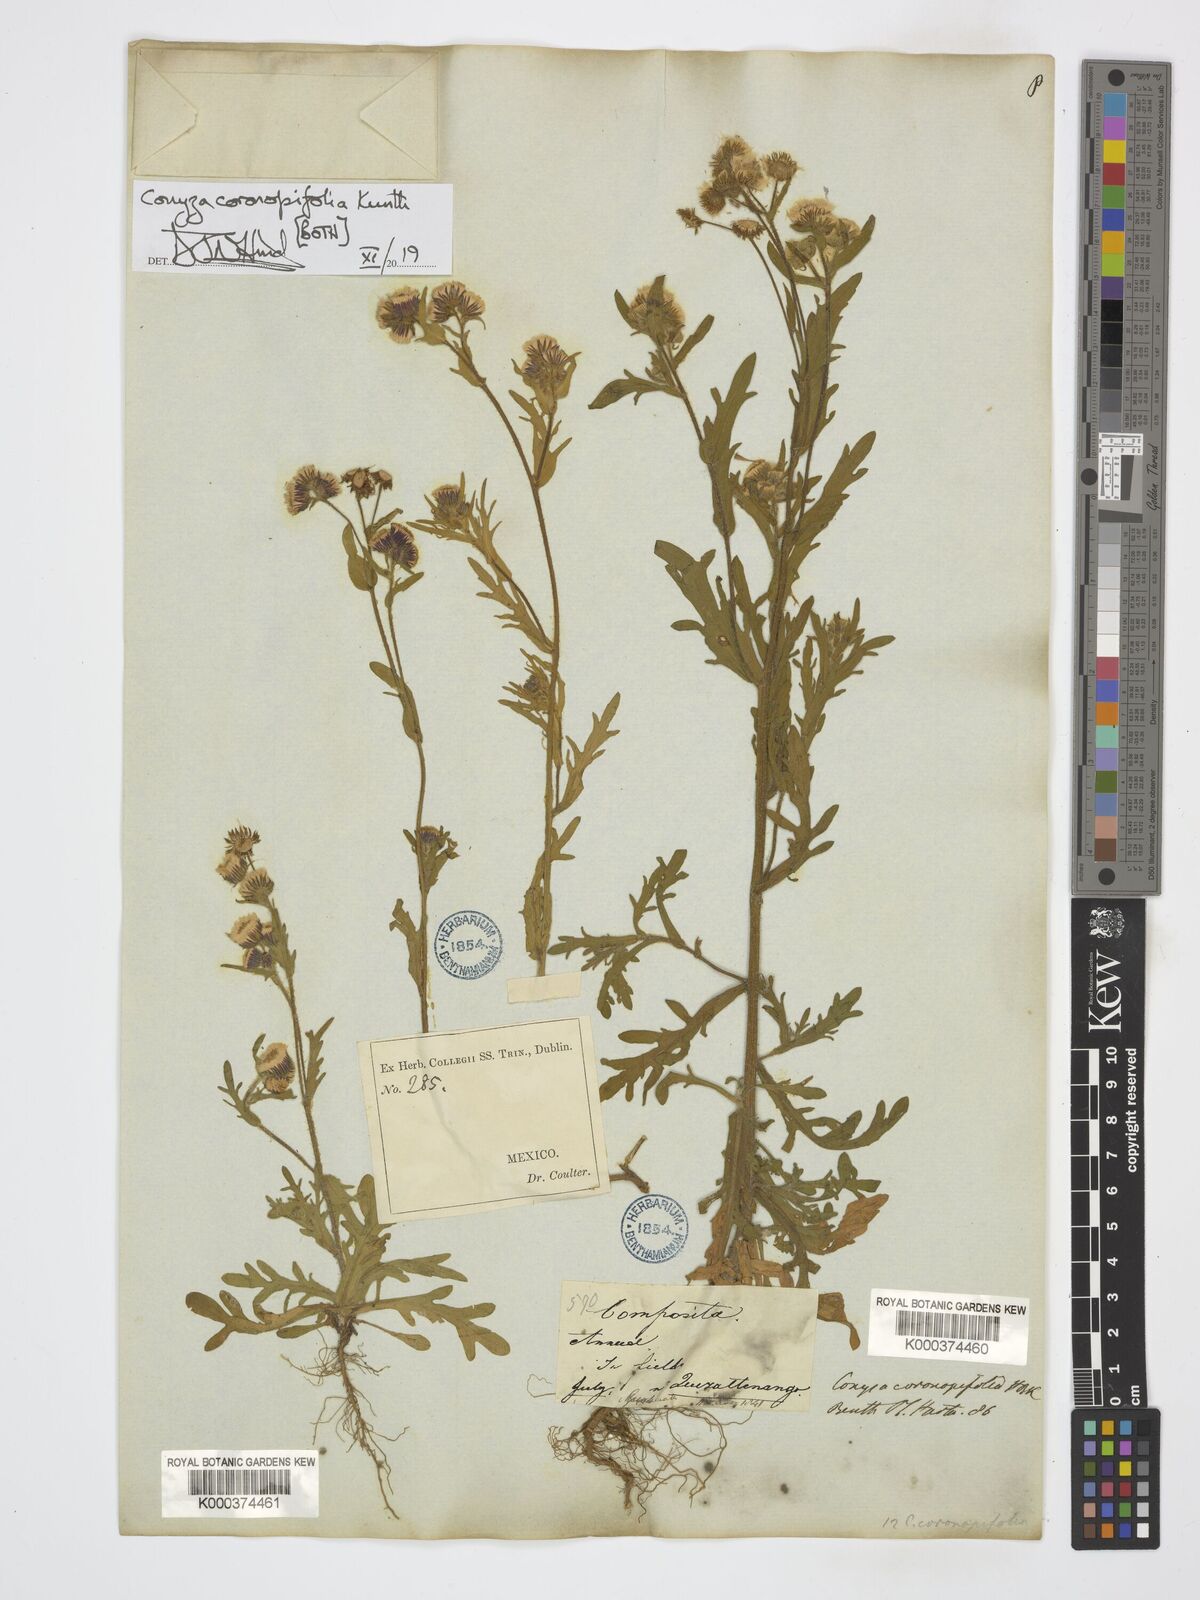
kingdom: Plantae
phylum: Tracheophyta
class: Magnoliopsida
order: Asterales
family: Asteraceae
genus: Erigeron
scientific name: Erigeron variifolius
